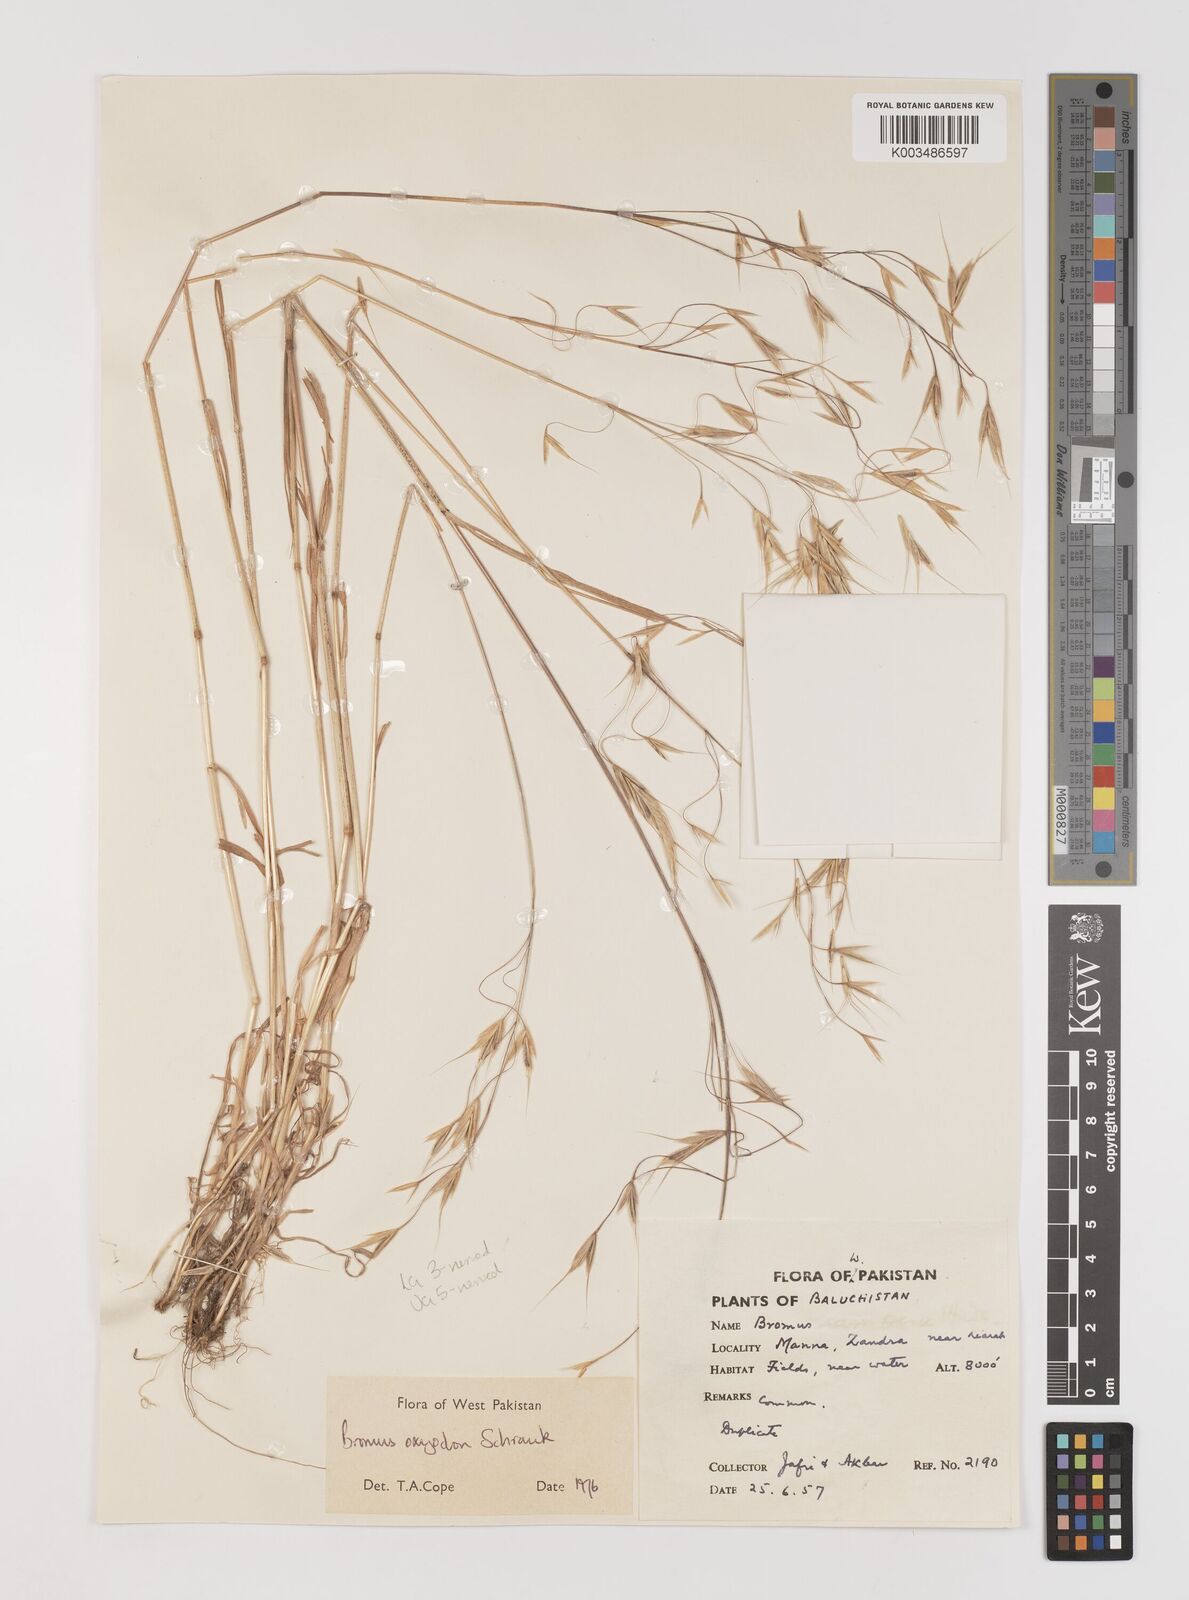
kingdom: Plantae
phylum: Tracheophyta
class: Liliopsida
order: Poales
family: Poaceae
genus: Bromus
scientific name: Bromus oxyodon
